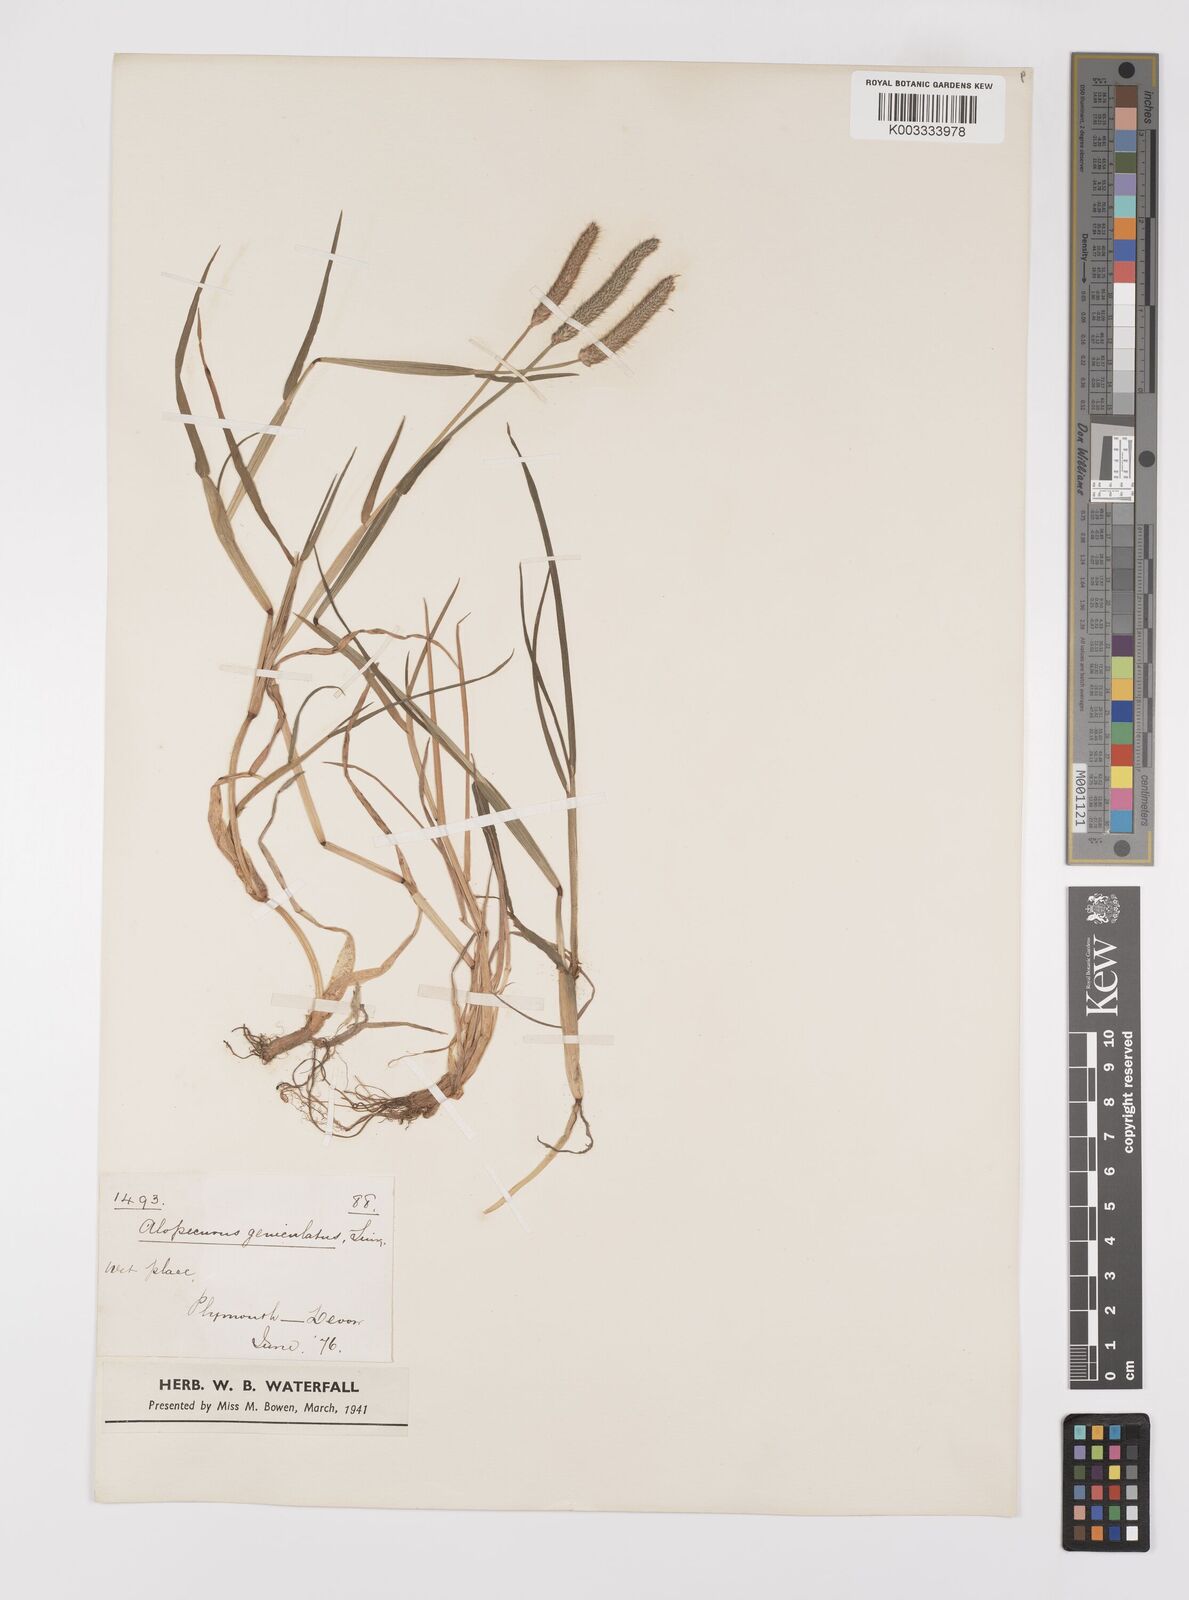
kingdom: Plantae
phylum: Tracheophyta
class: Liliopsida
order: Poales
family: Poaceae
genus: Alopecurus
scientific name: Alopecurus geniculatus
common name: Water foxtail
